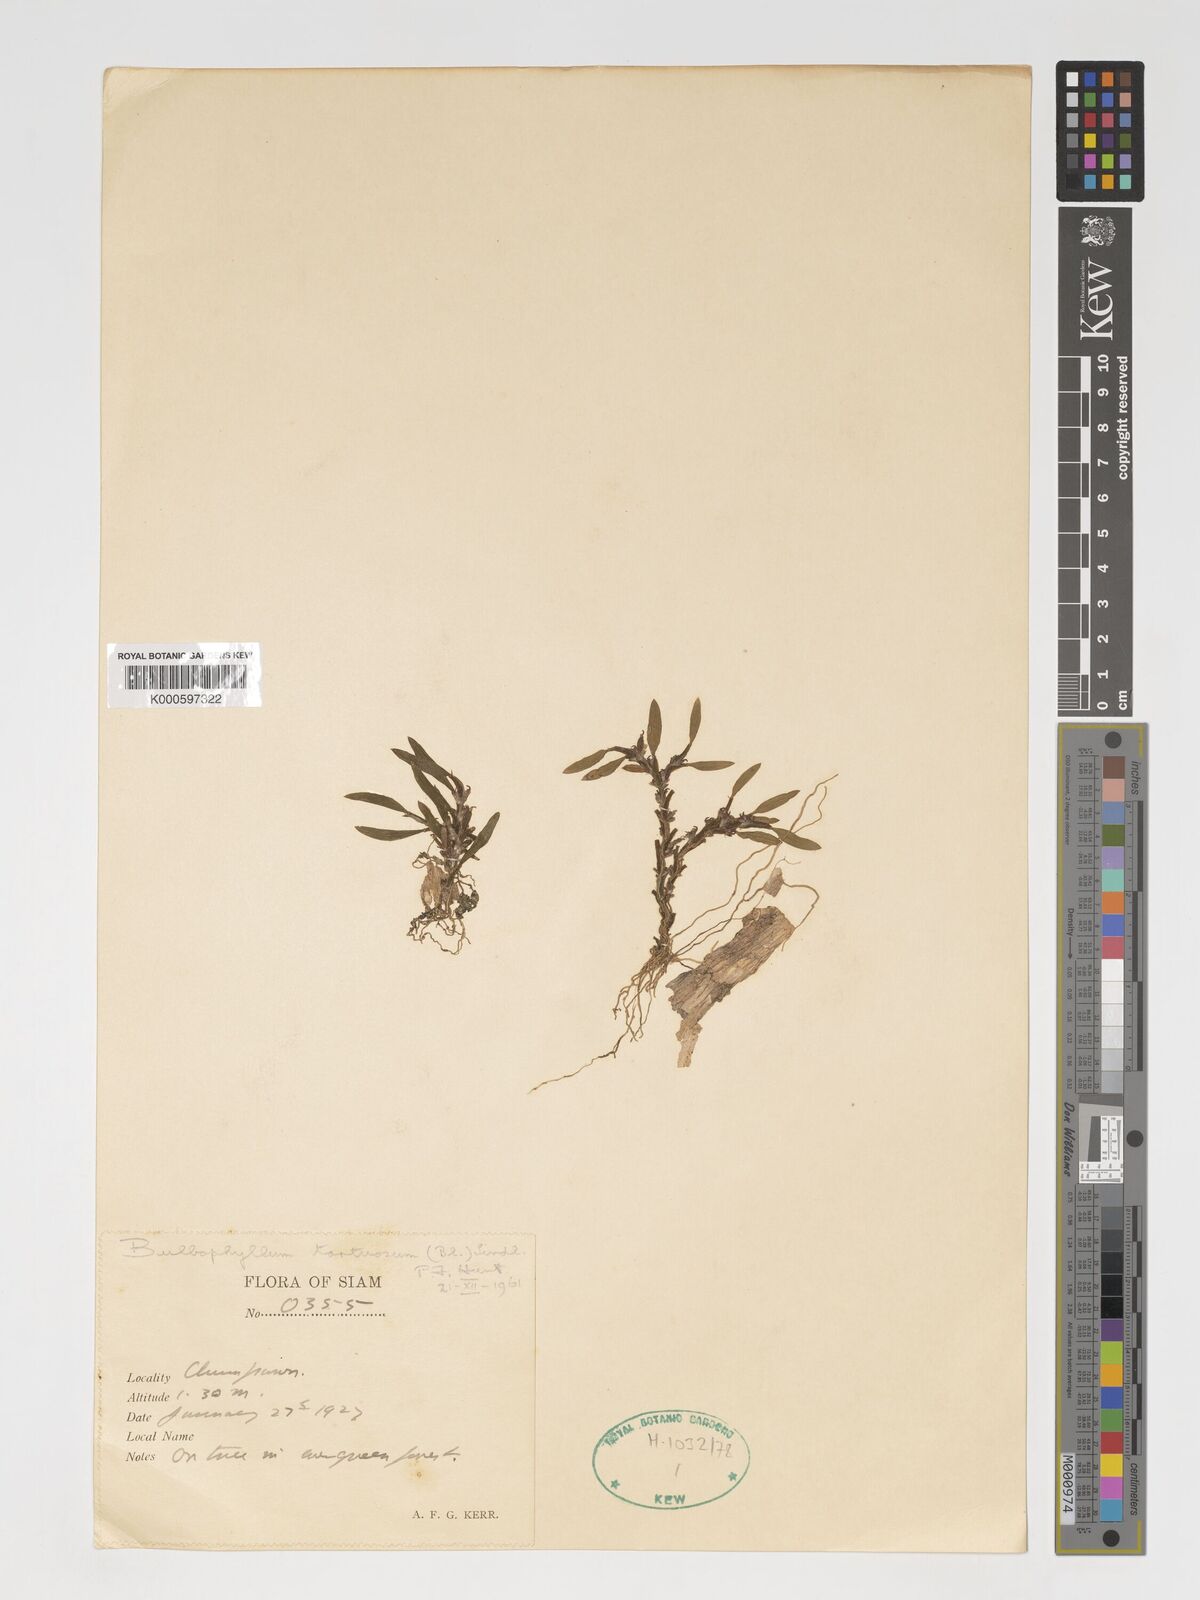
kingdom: Plantae
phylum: Tracheophyta
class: Liliopsida
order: Asparagales
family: Orchidaceae
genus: Bulbophyllum
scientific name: Bulbophyllum tortuosum
